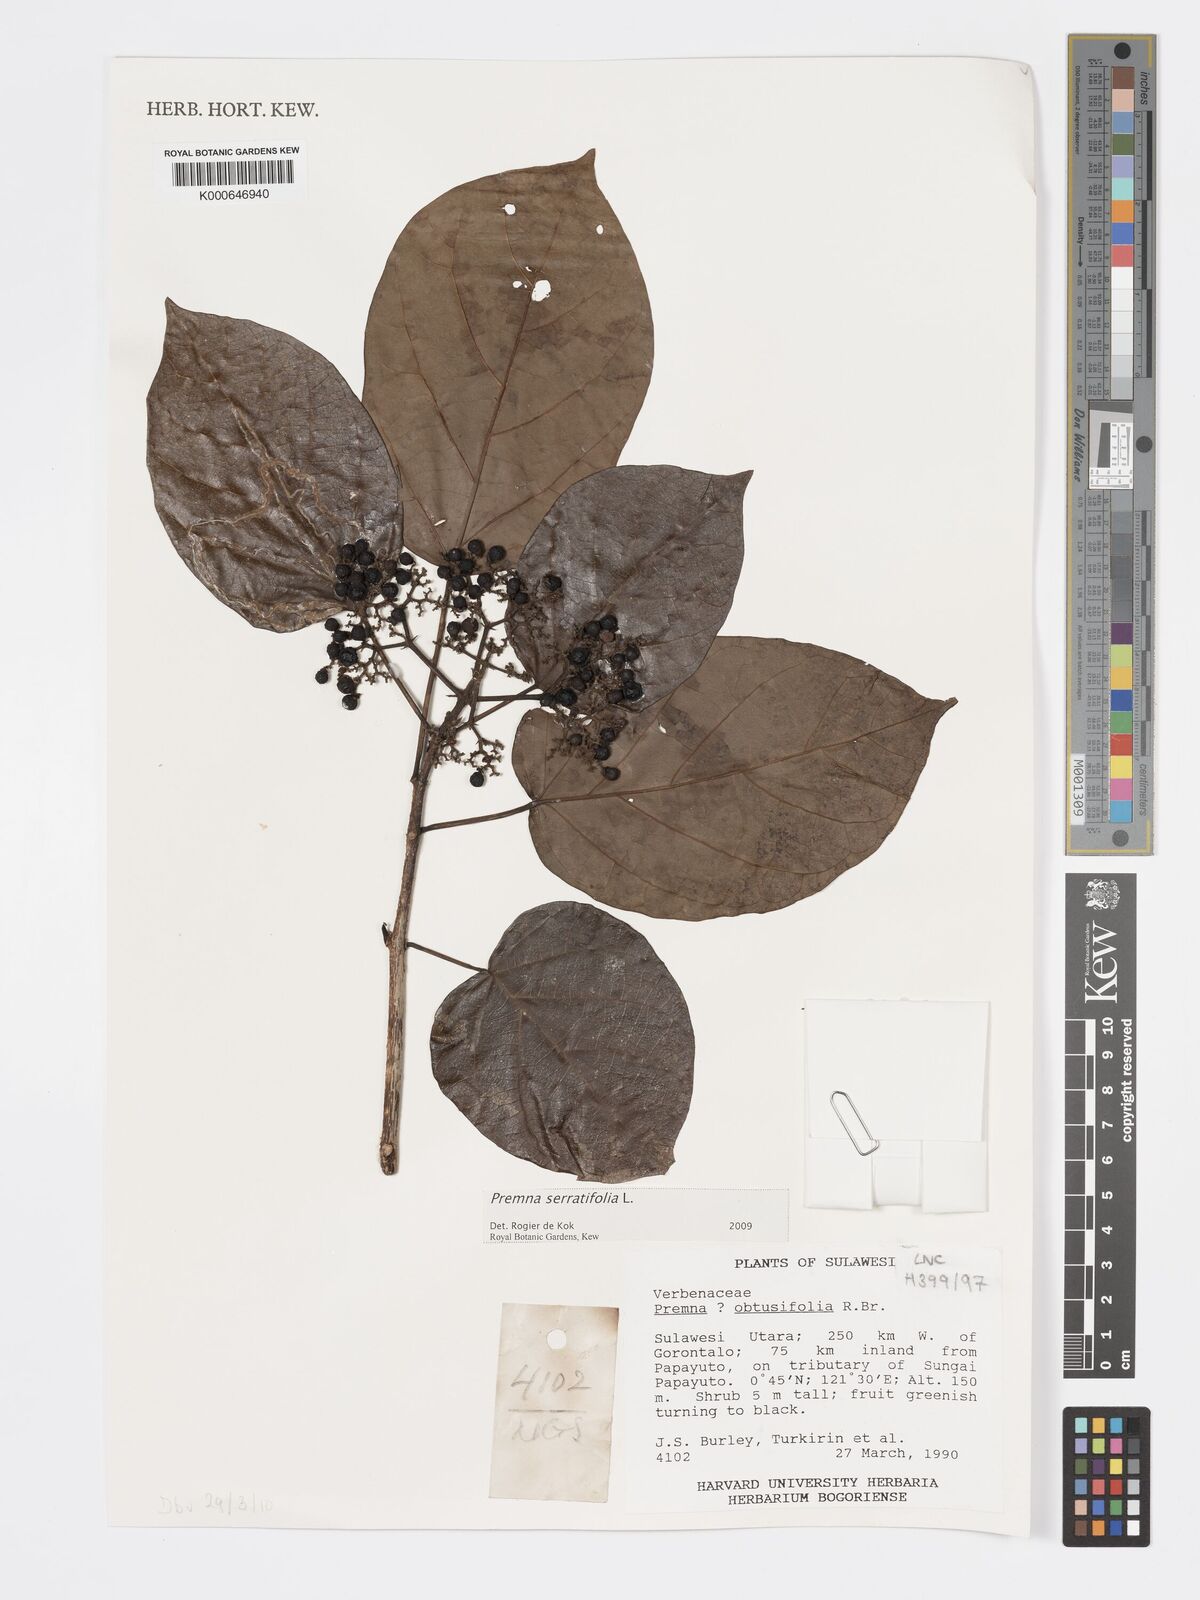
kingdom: Plantae
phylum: Tracheophyta
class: Magnoliopsida
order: Lamiales
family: Lamiaceae
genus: Premna
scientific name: Premna serratifolia
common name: Bastard guelder
